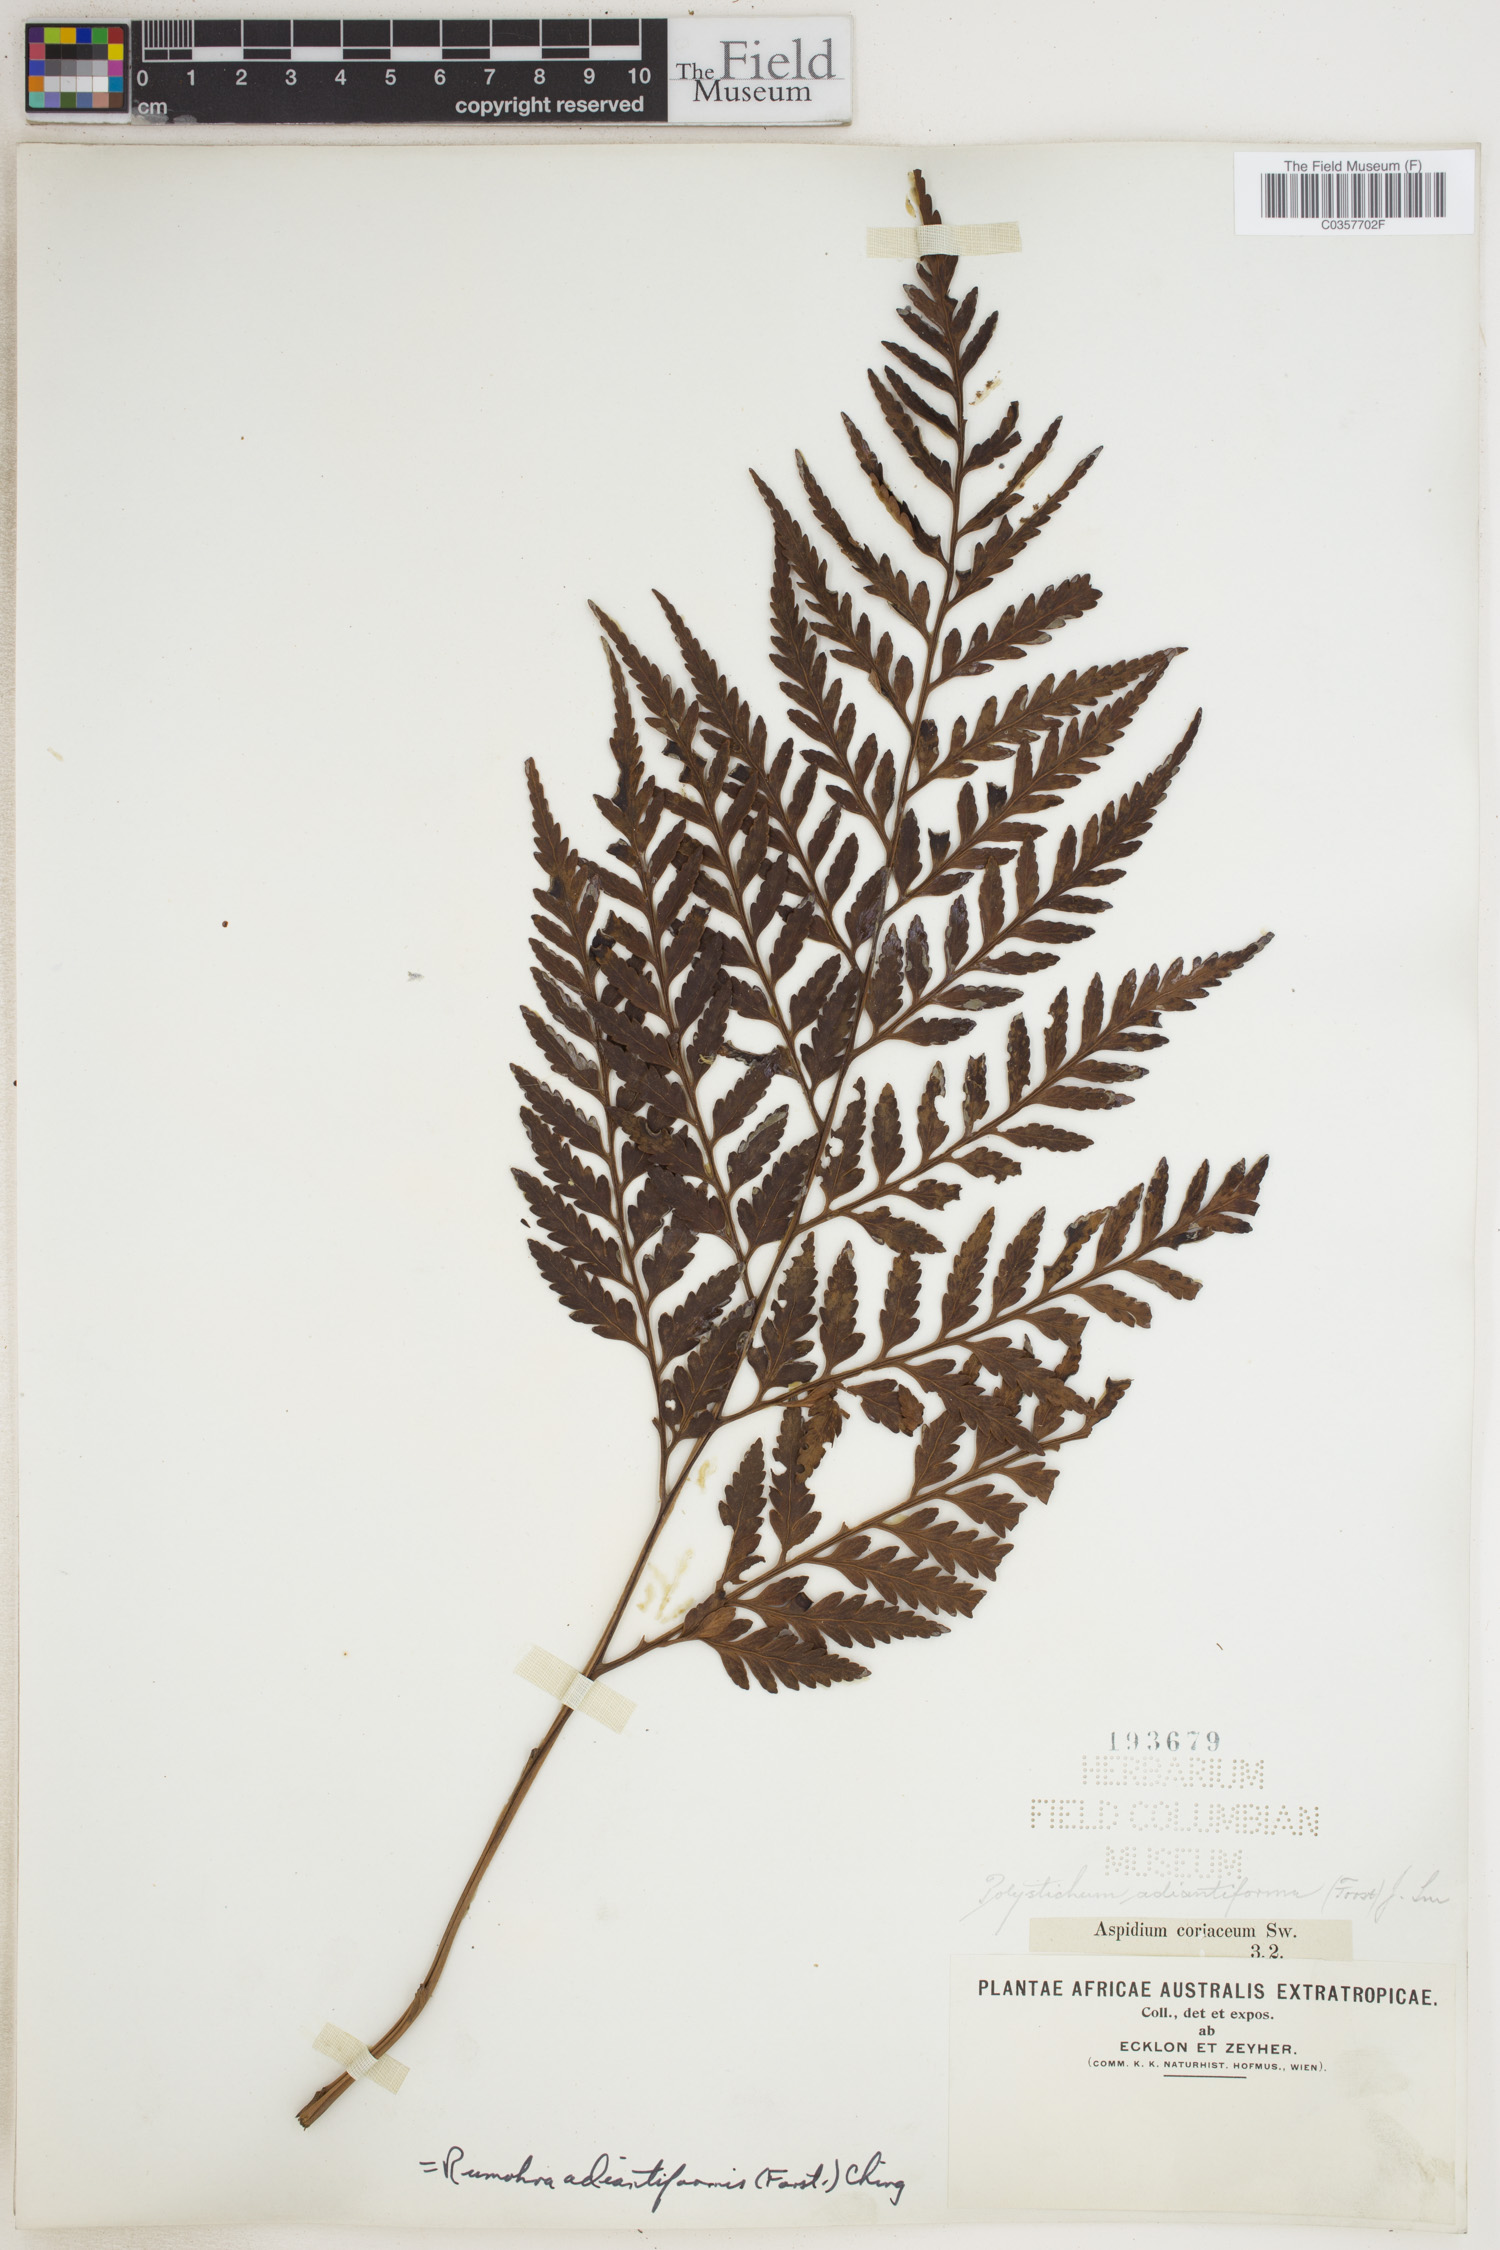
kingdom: Plantae
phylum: Tracheophyta
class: Polypodiopsida
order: Polypodiales
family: Dryopteridaceae
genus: Rumohra
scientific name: Rumohra adiantiformis
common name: Leather fern
